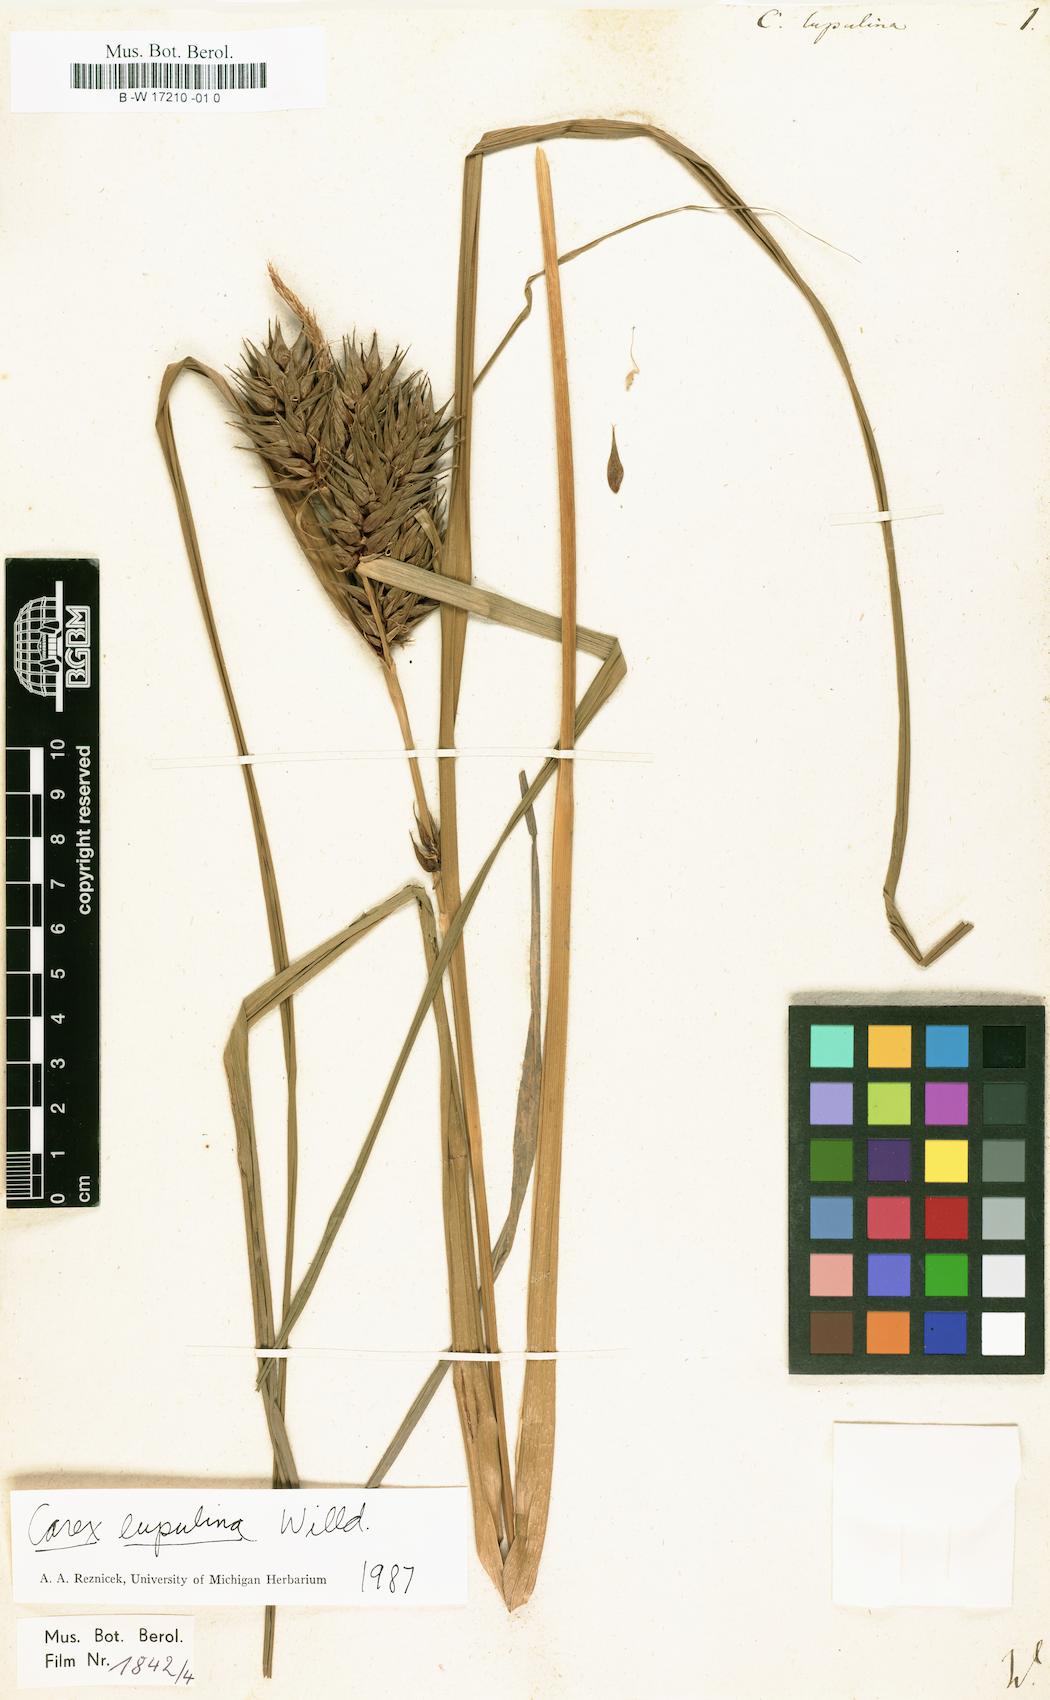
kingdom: Plantae
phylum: Tracheophyta
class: Liliopsida
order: Poales
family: Cyperaceae
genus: Carex
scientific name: Carex lupulina
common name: Hop sedge
